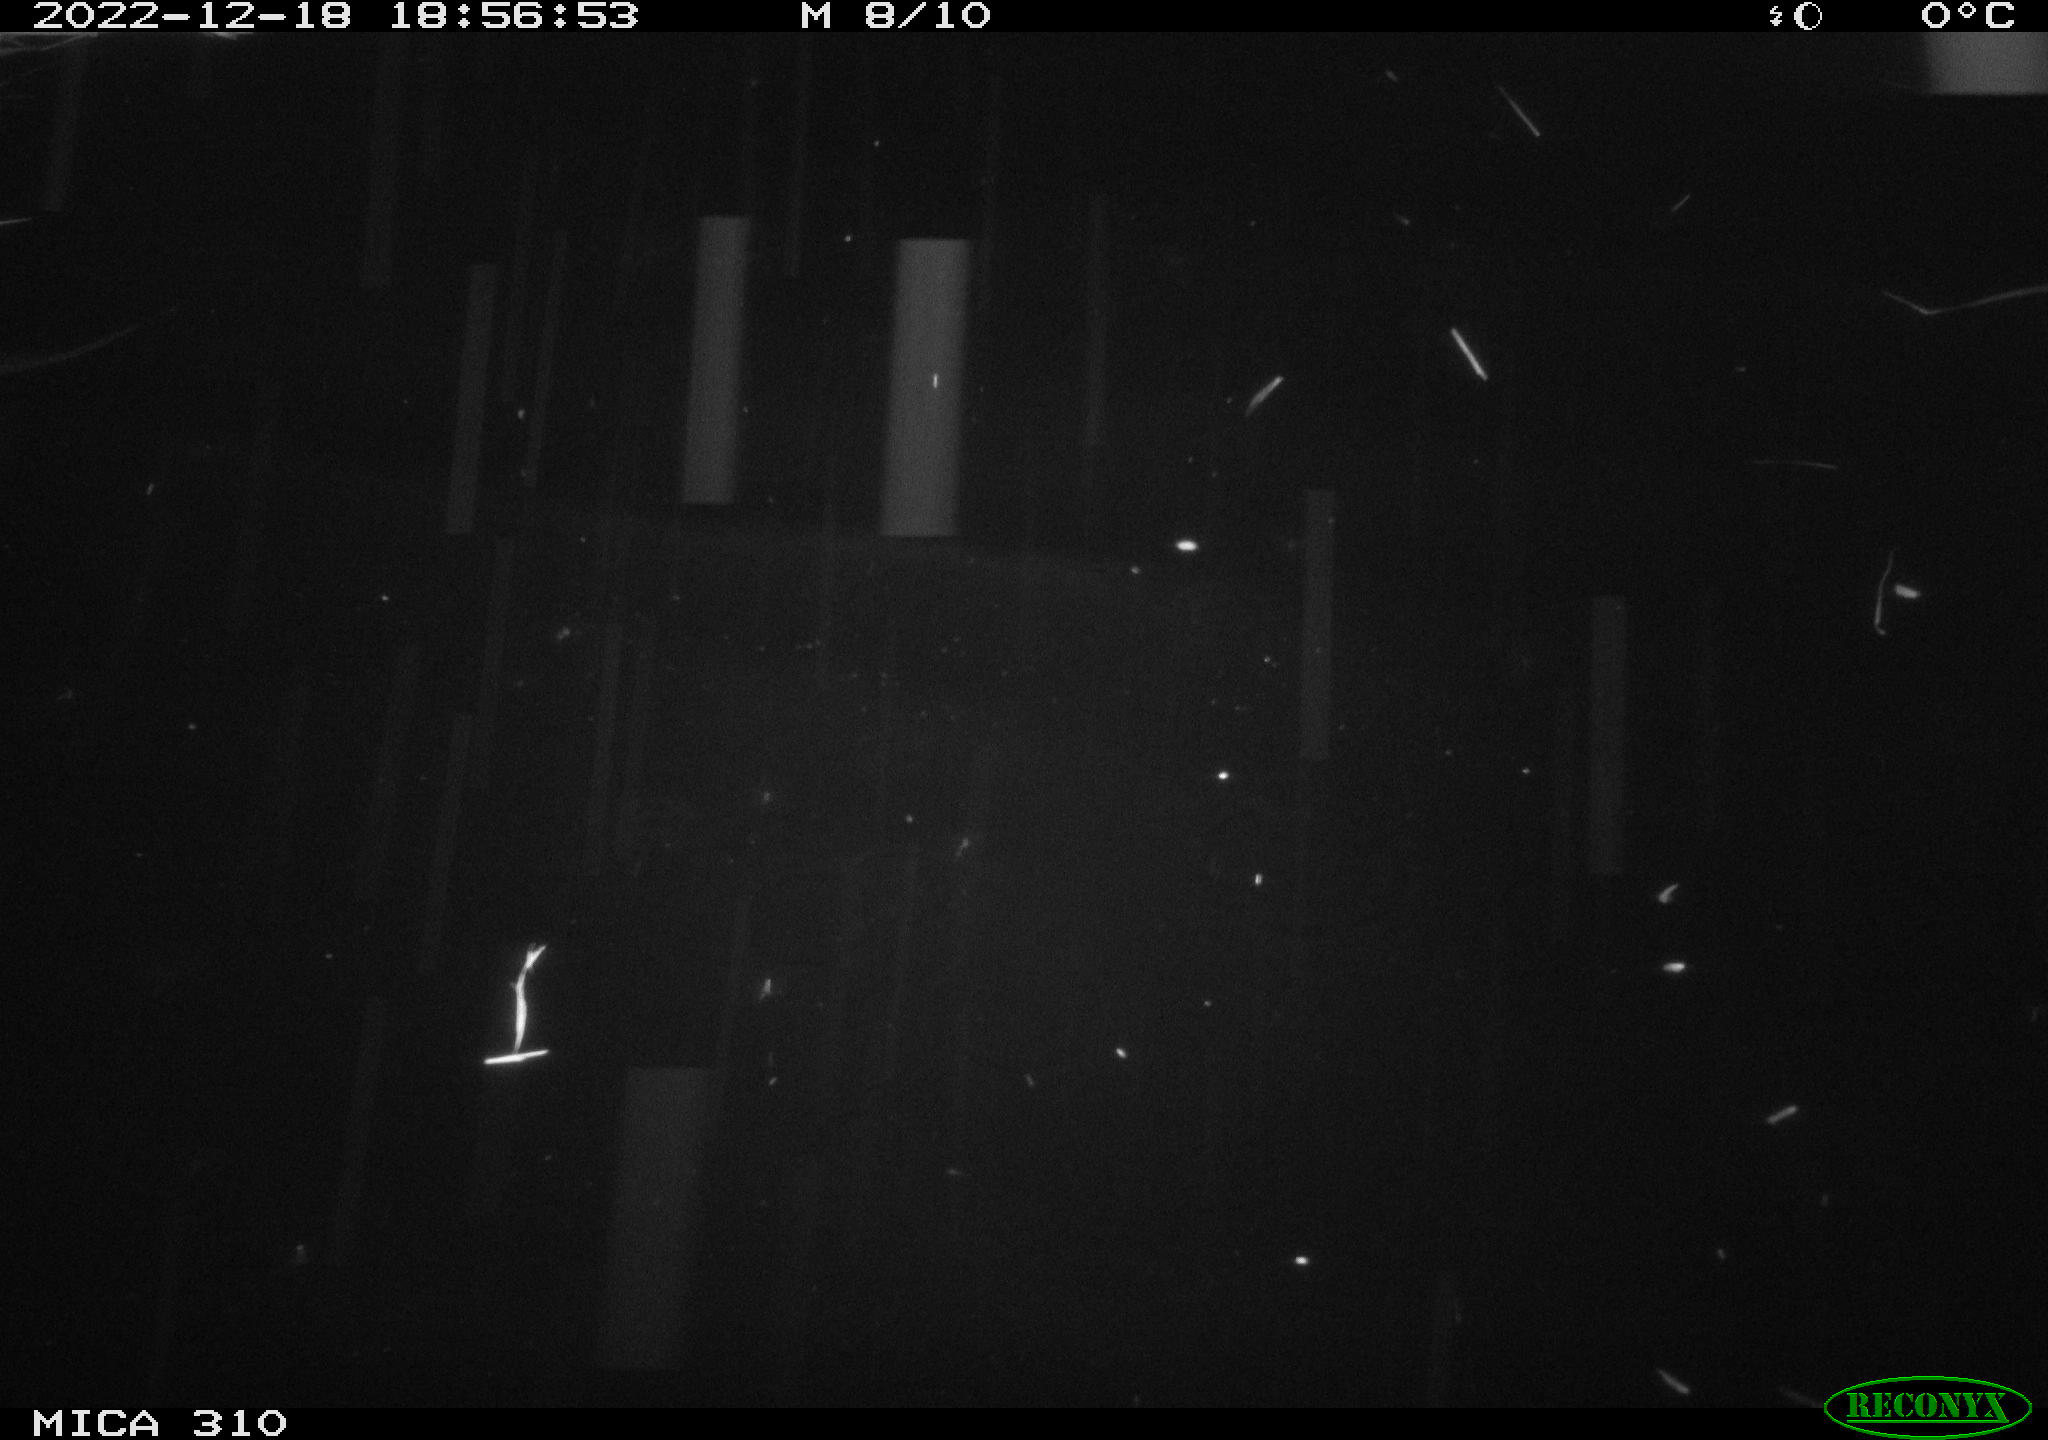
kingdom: Animalia
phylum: Chordata
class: Mammalia
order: Rodentia
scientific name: Rodentia
